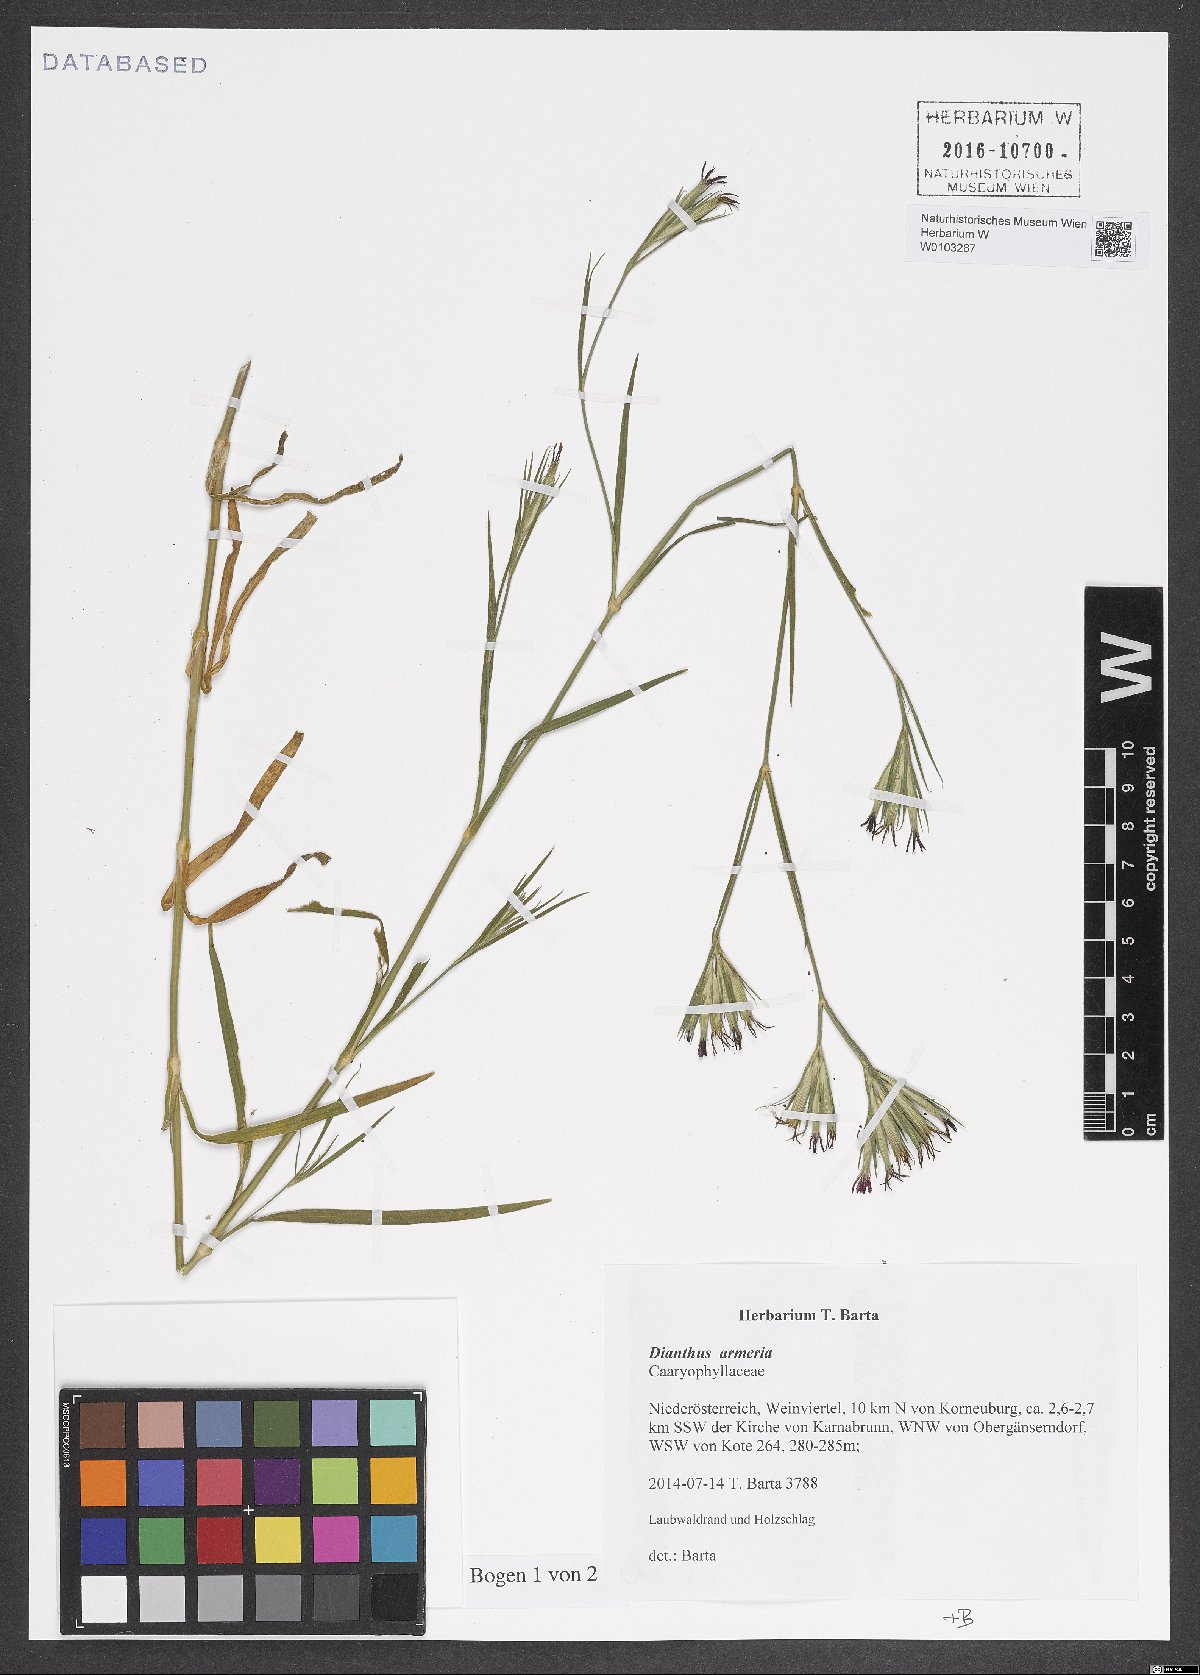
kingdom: Plantae
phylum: Tracheophyta
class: Magnoliopsida
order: Caryophyllales
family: Caryophyllaceae
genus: Dianthus
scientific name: Dianthus armeria
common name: Deptford pink
